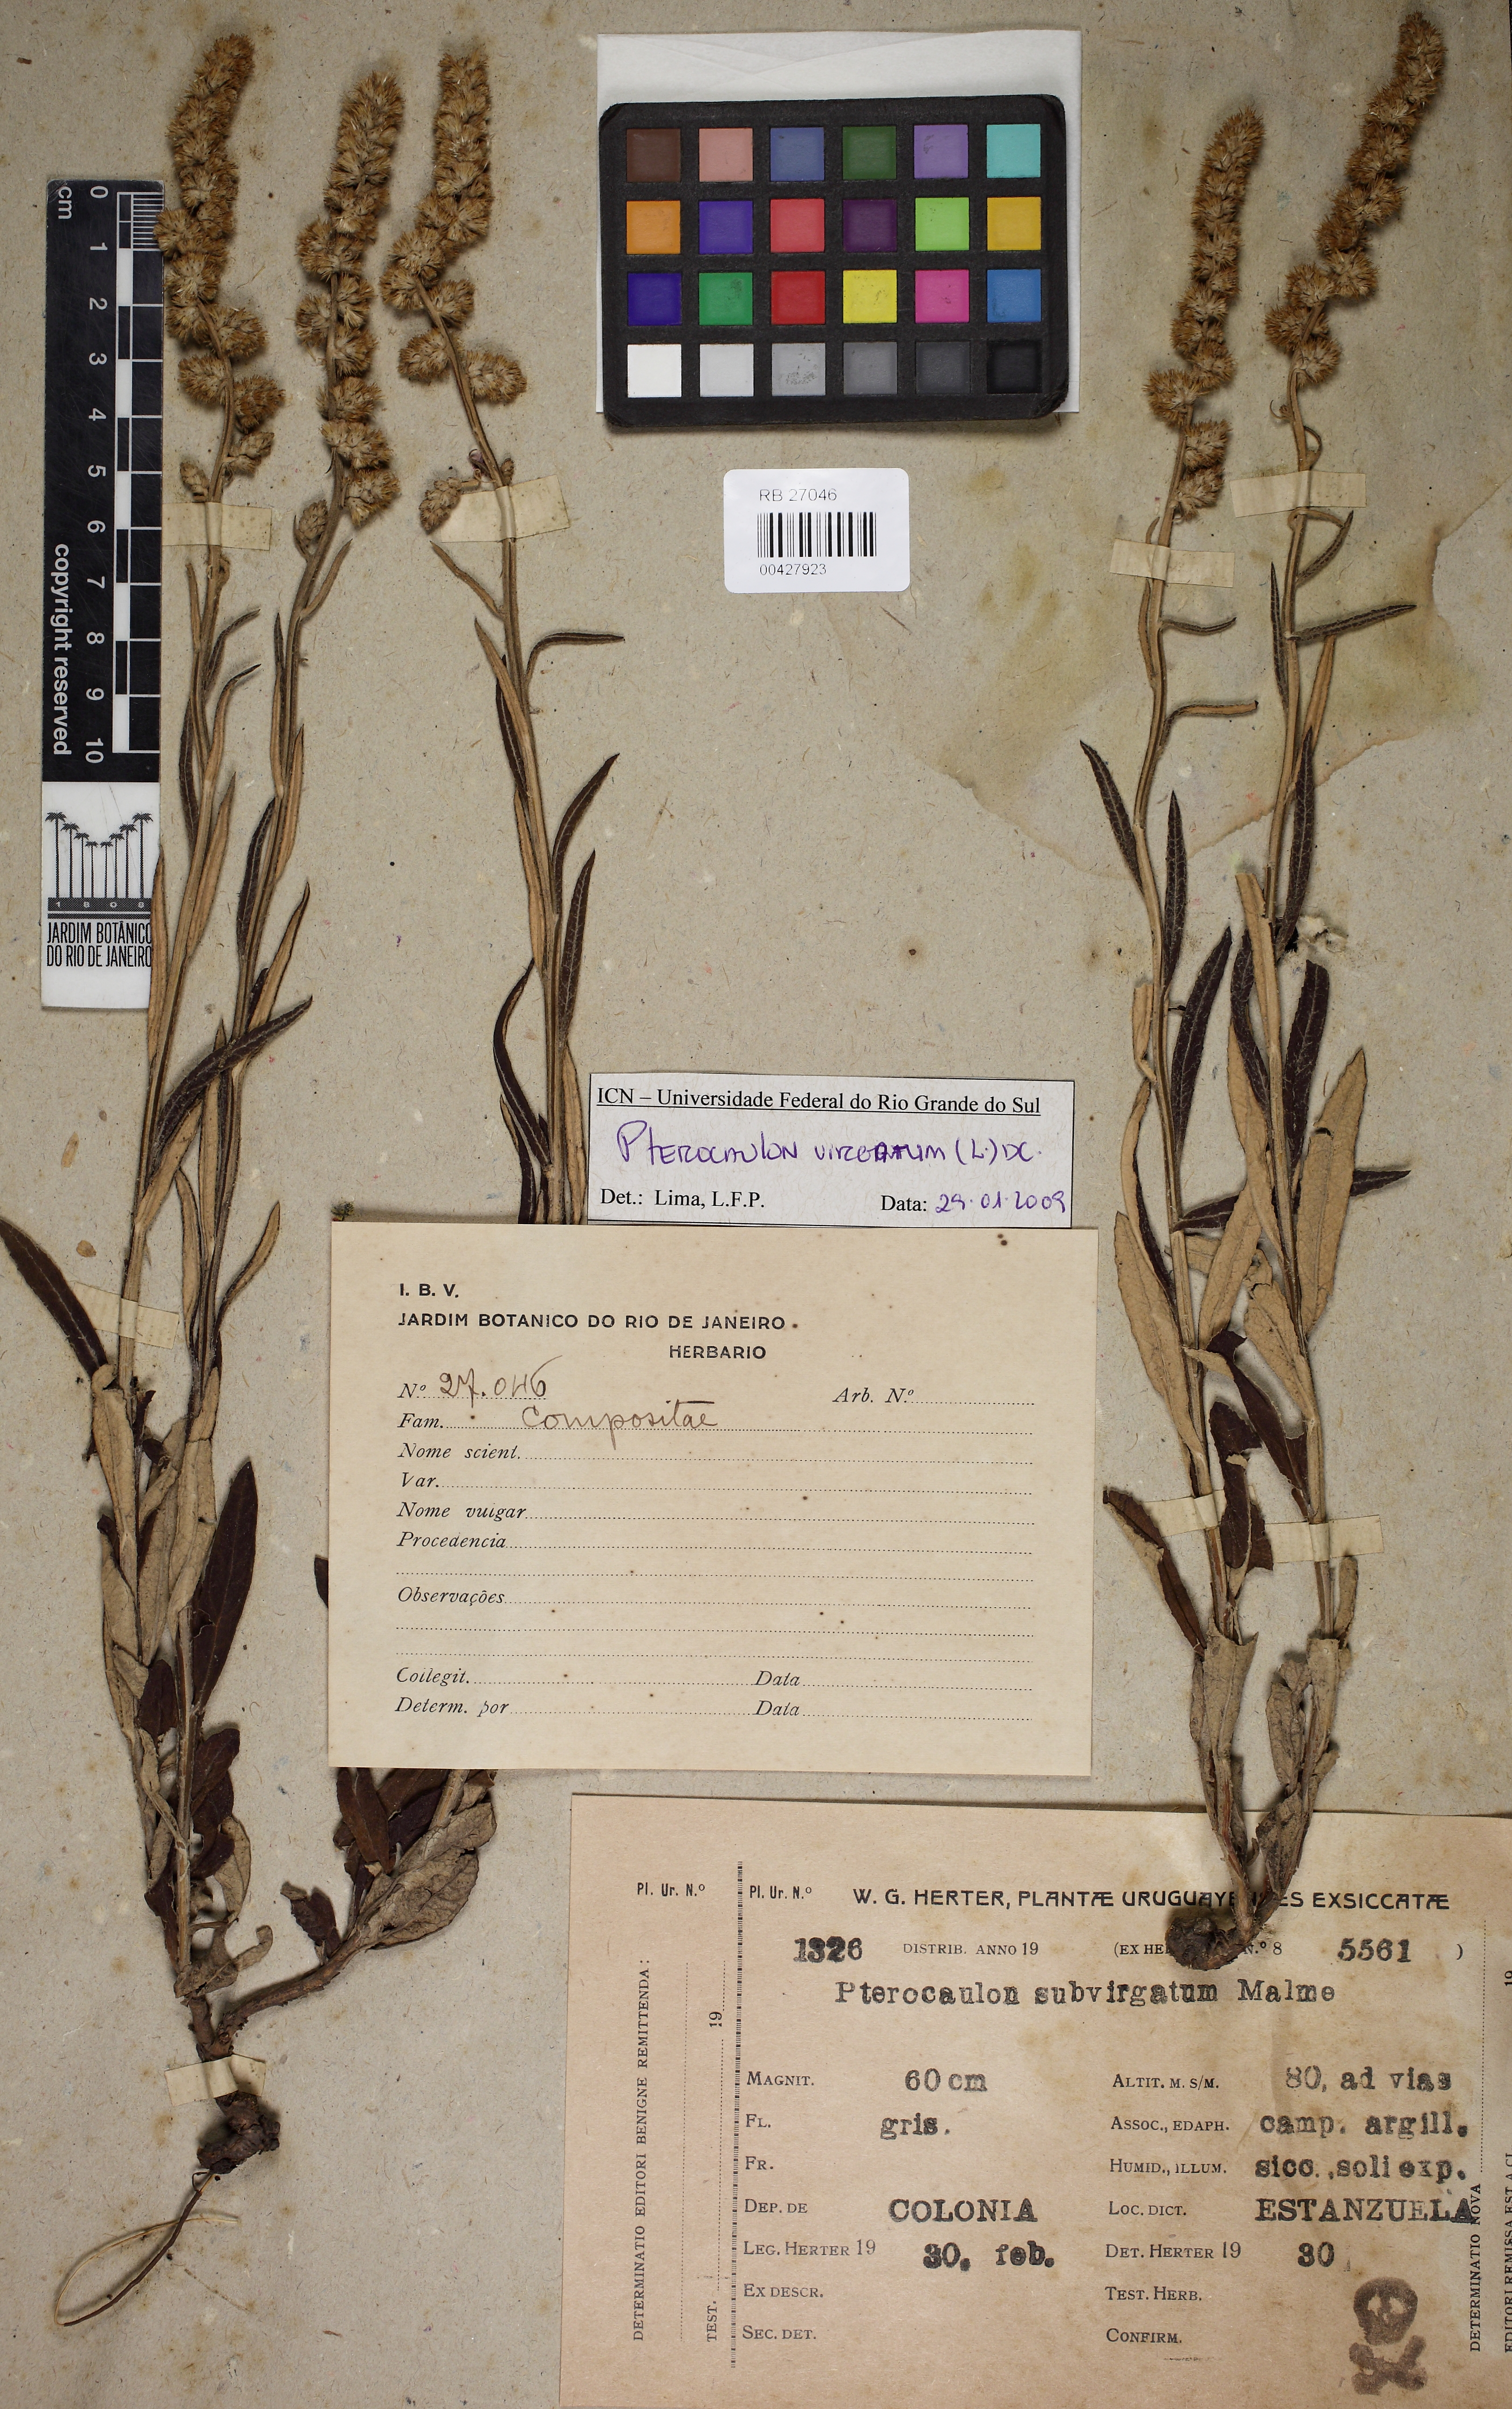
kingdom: Plantae
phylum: Tracheophyta
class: Magnoliopsida
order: Asterales
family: Asteraceae
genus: Pterocaulon
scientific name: Pterocaulon virgatum
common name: Wand blackroot
